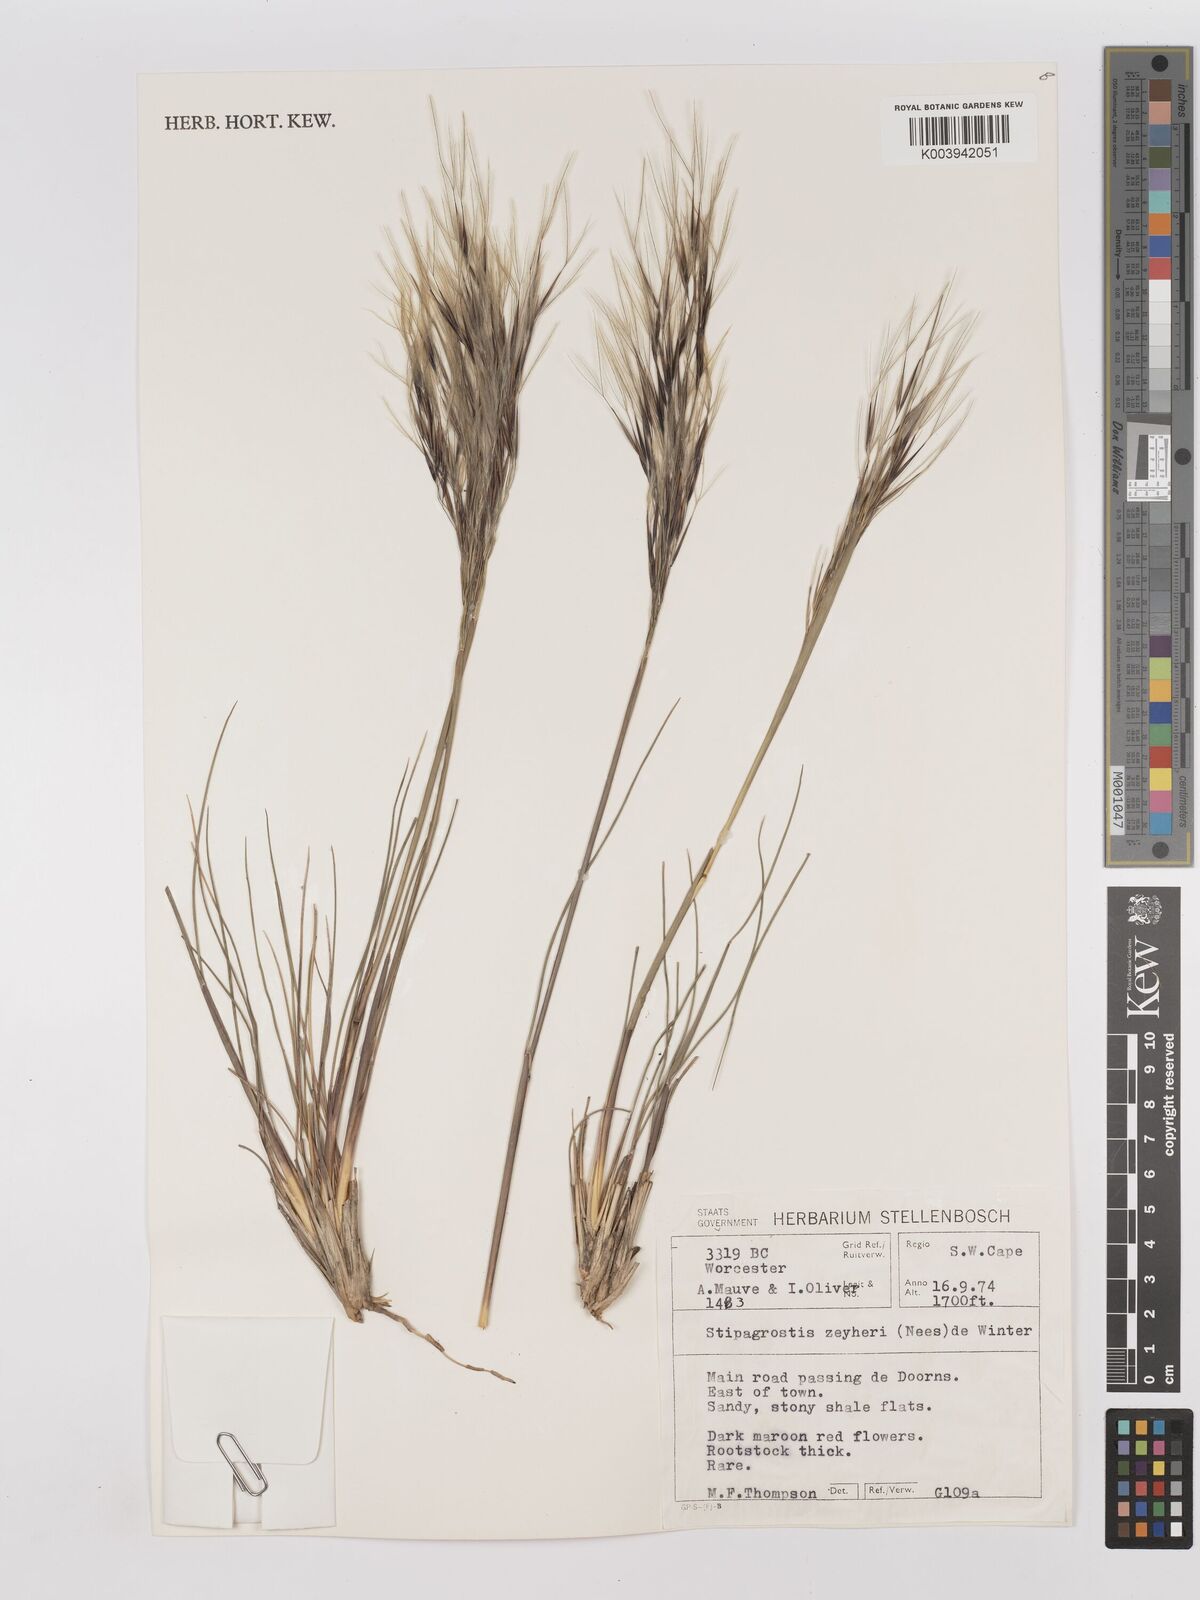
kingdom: Plantae
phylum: Tracheophyta
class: Liliopsida
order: Poales
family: Poaceae
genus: Stipagrostis
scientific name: Stipagrostis zeyheri
